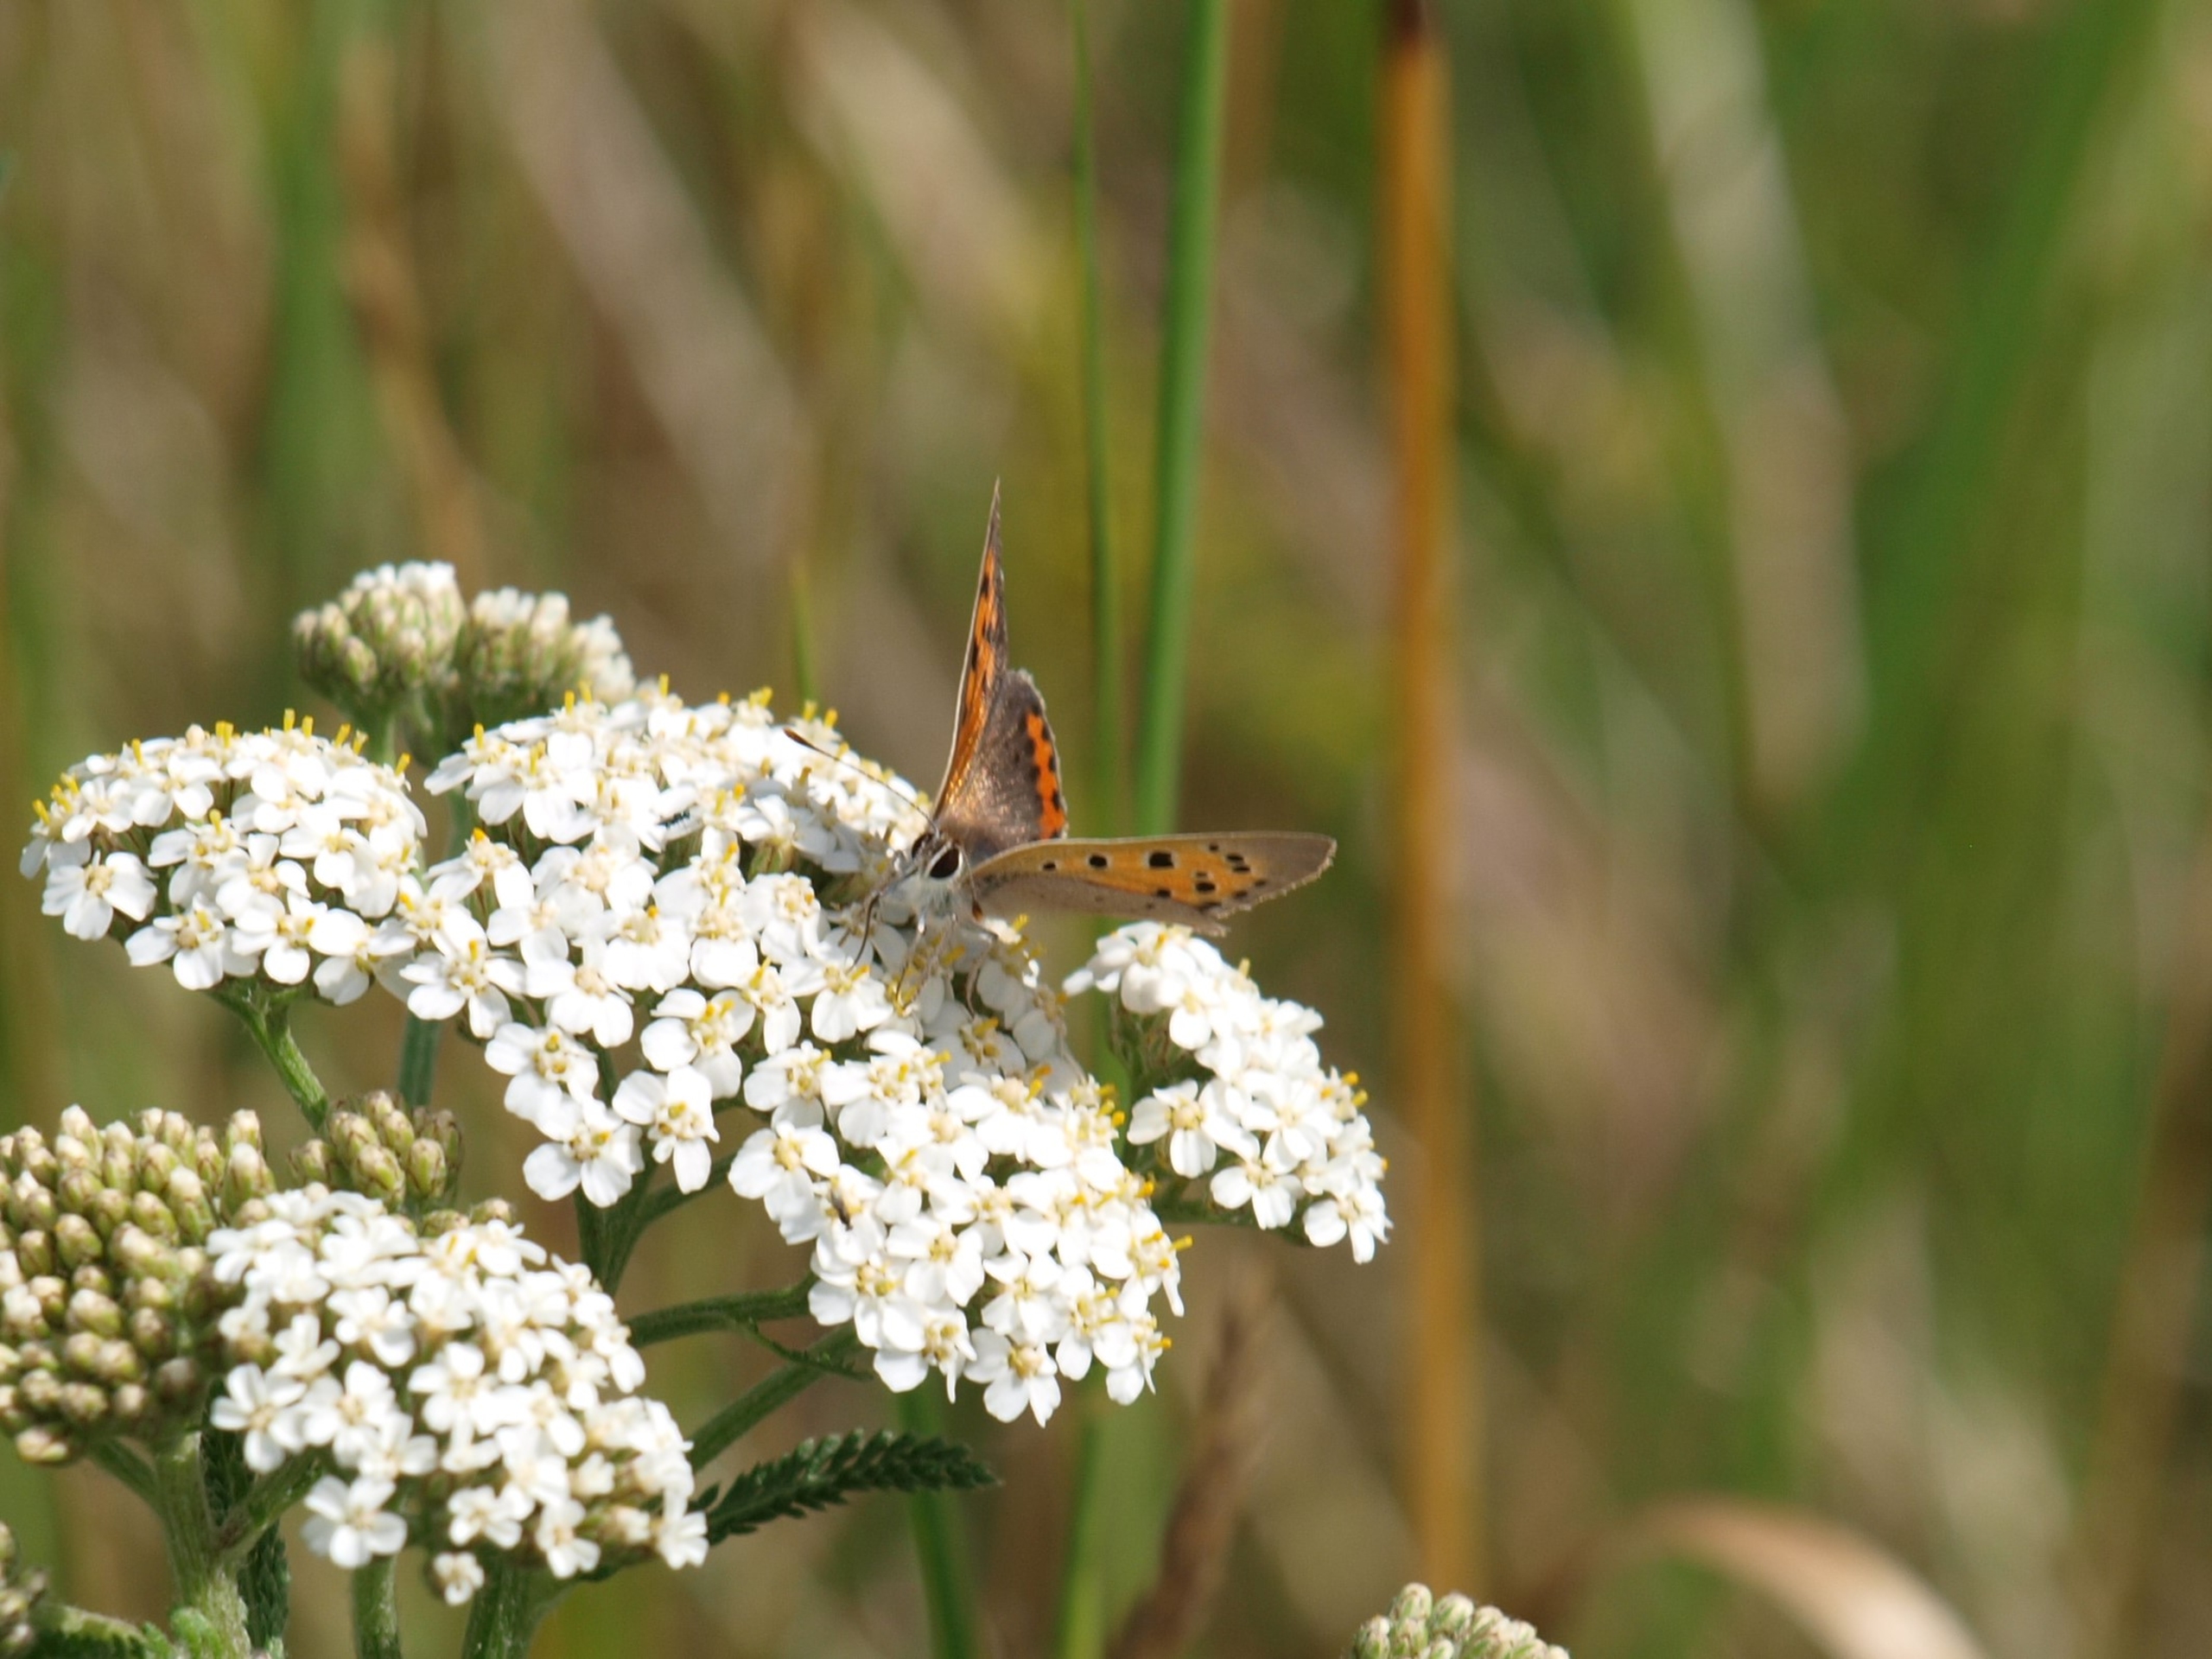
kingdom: Animalia
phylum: Arthropoda
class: Insecta
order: Lepidoptera
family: Lycaenidae
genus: Lycaena
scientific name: Lycaena phlaeas
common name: Lille ildfugl
